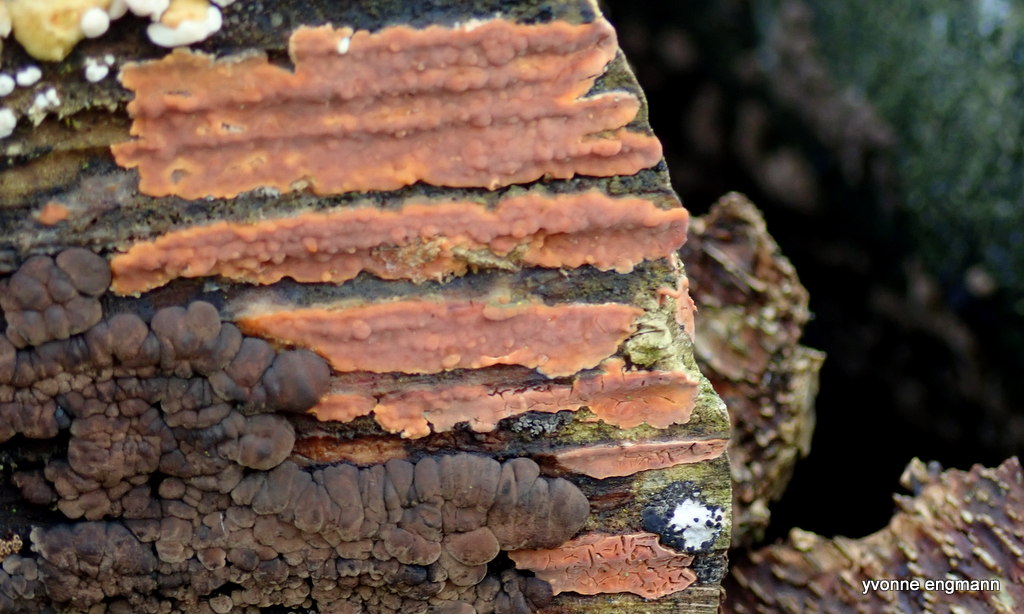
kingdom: Fungi
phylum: Basidiomycota
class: Agaricomycetes
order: Russulales
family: Peniophoraceae
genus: Peniophora
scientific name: Peniophora incarnata
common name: laksefarvet voksskind
